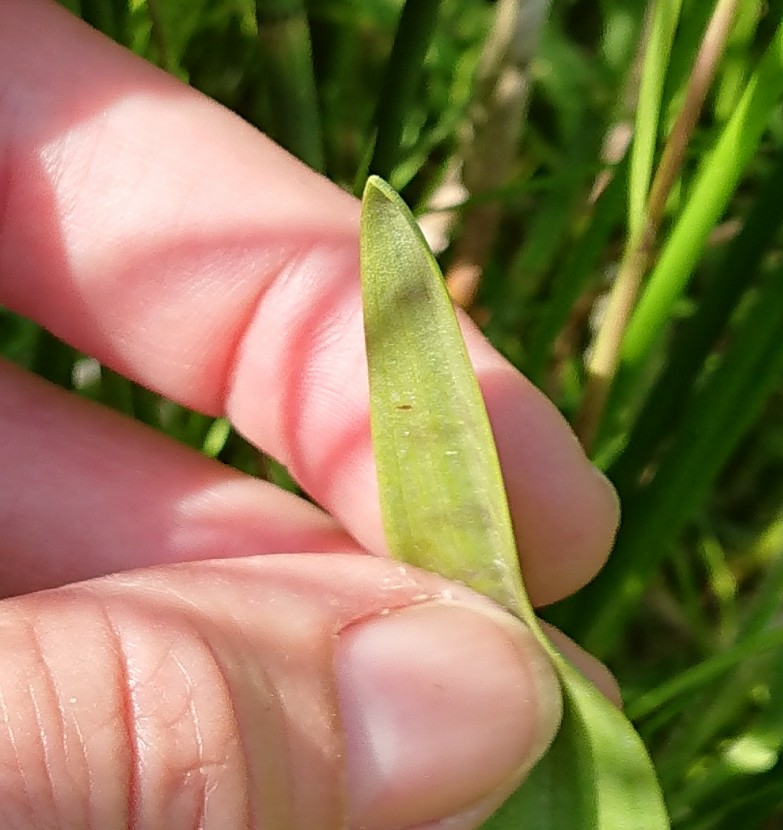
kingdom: Plantae
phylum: Tracheophyta
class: Liliopsida
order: Asparagales
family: Orchidaceae
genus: Dactylorhiza
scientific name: Dactylorhiza majalis
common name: Maj-gøgeurt
